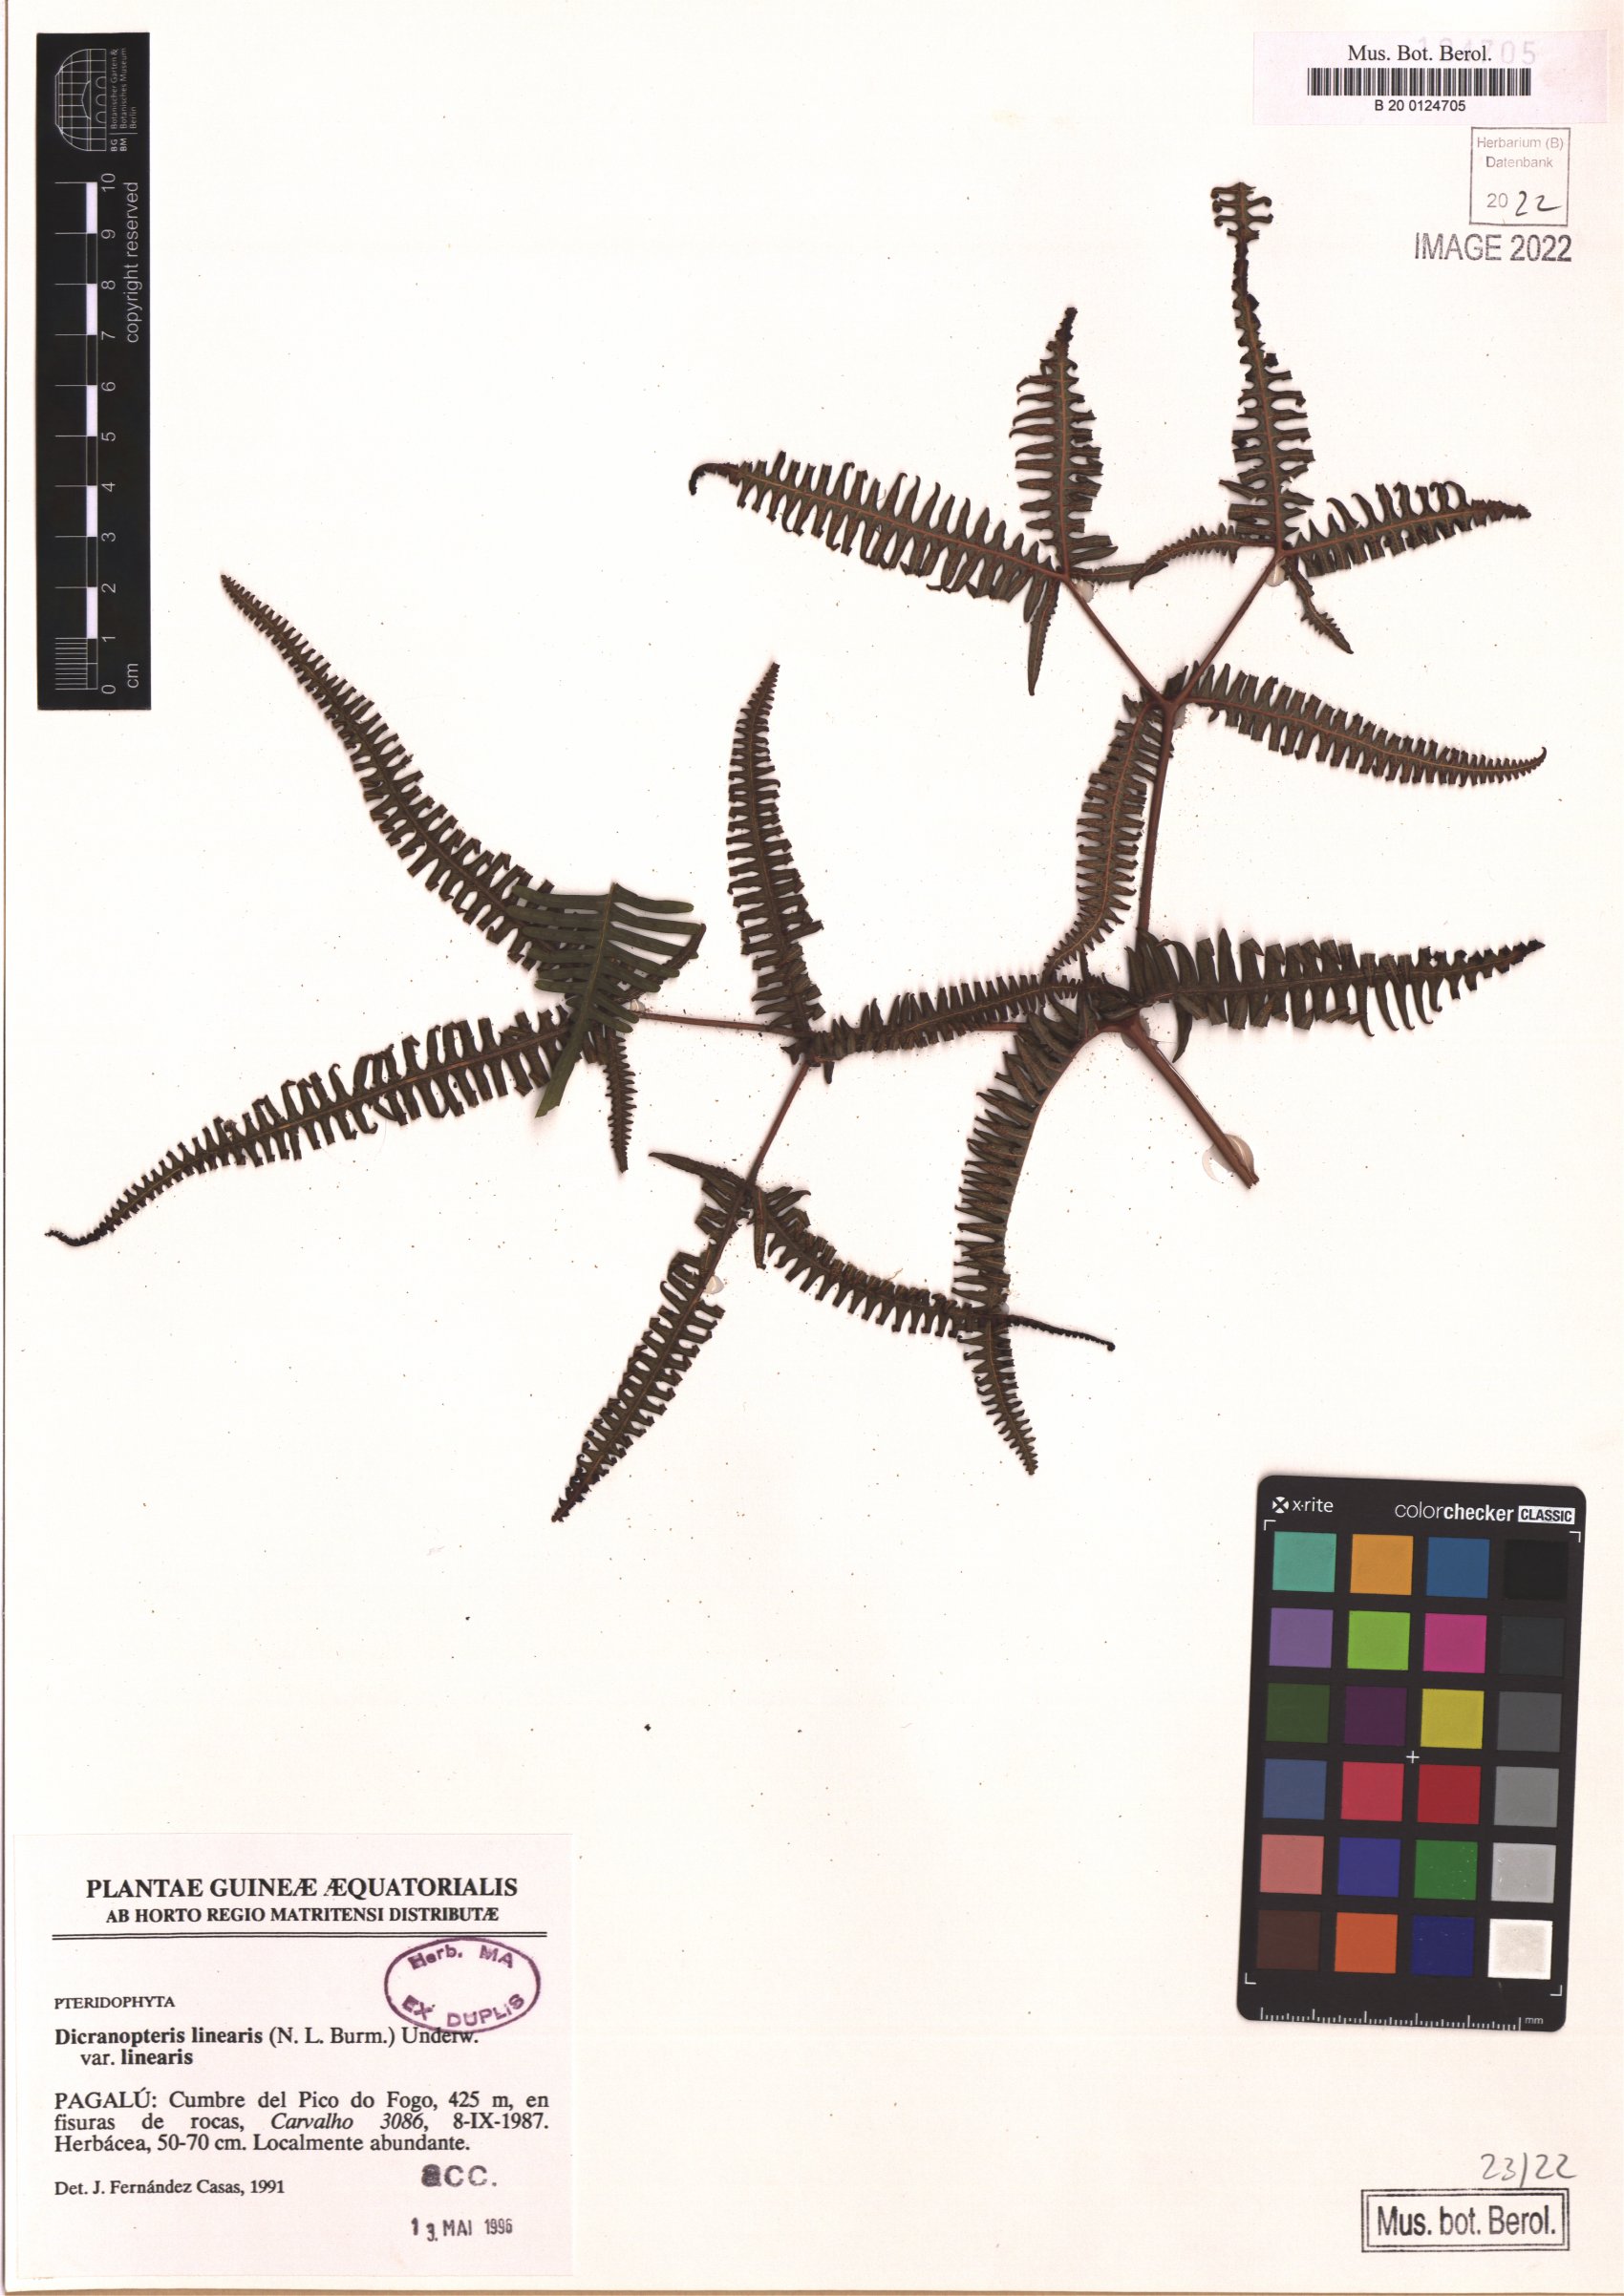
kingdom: Plantae
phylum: Tracheophyta
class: Polypodiopsida
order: Gleicheniales
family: Gleicheniaceae
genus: Dicranopteris
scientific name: Dicranopteris linearis
